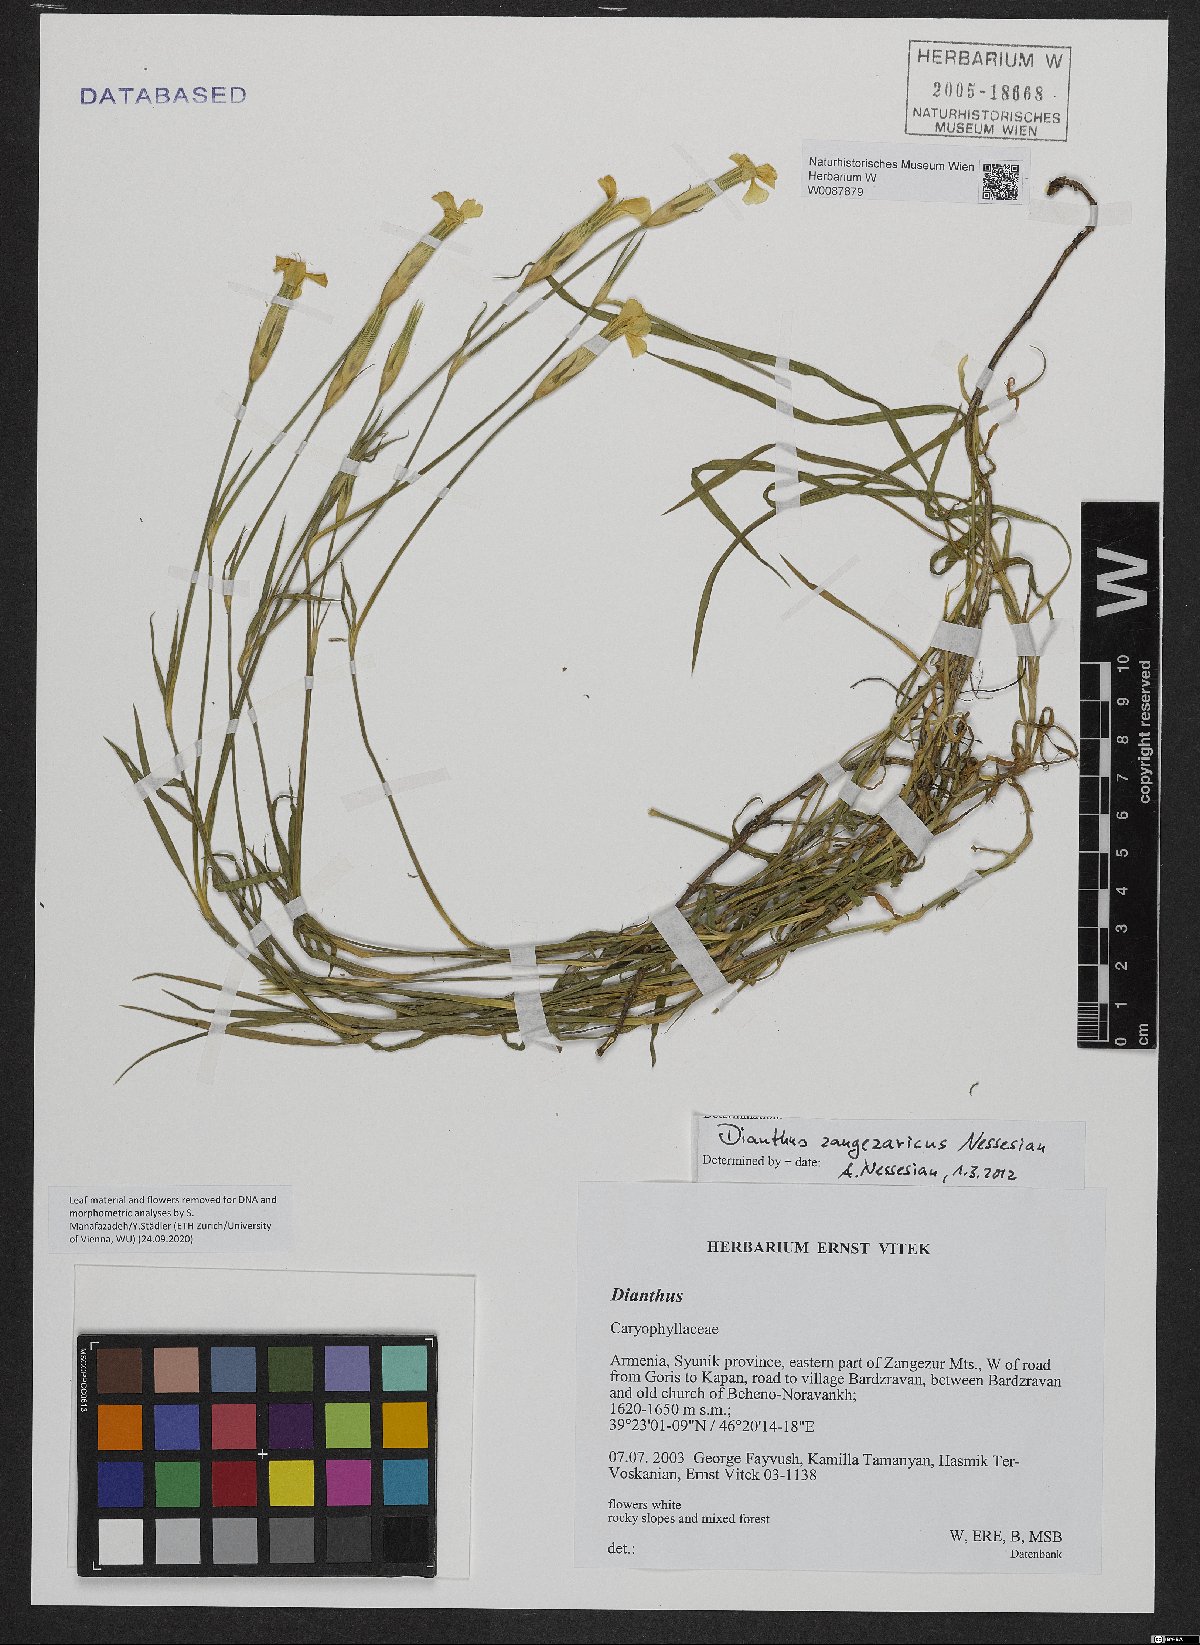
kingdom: Plantae
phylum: Tracheophyta
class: Magnoliopsida
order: Caryophyllales
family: Caryophyllaceae
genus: Dianthus
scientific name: Dianthus zangezuricus
